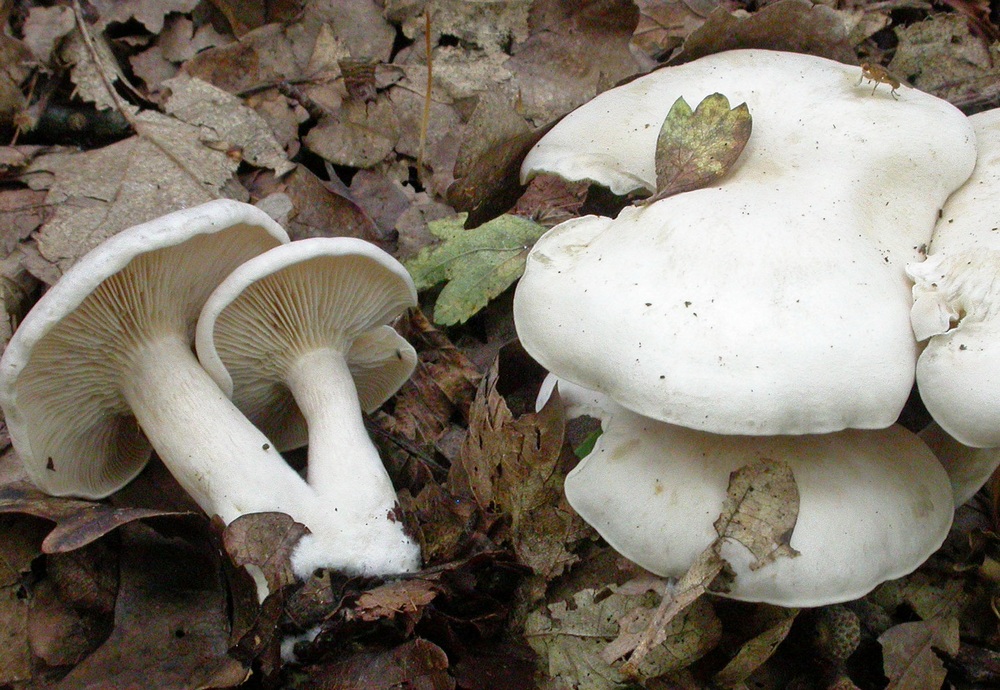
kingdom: Fungi
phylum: Basidiomycota
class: Agaricomycetes
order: Agaricales
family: Tricholomataceae
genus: Clitocybe
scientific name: Clitocybe phyllophila
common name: løv-tragthat
